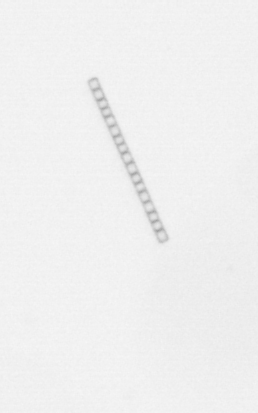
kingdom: Chromista
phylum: Ochrophyta
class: Bacillariophyceae
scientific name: Bacillariophyceae
